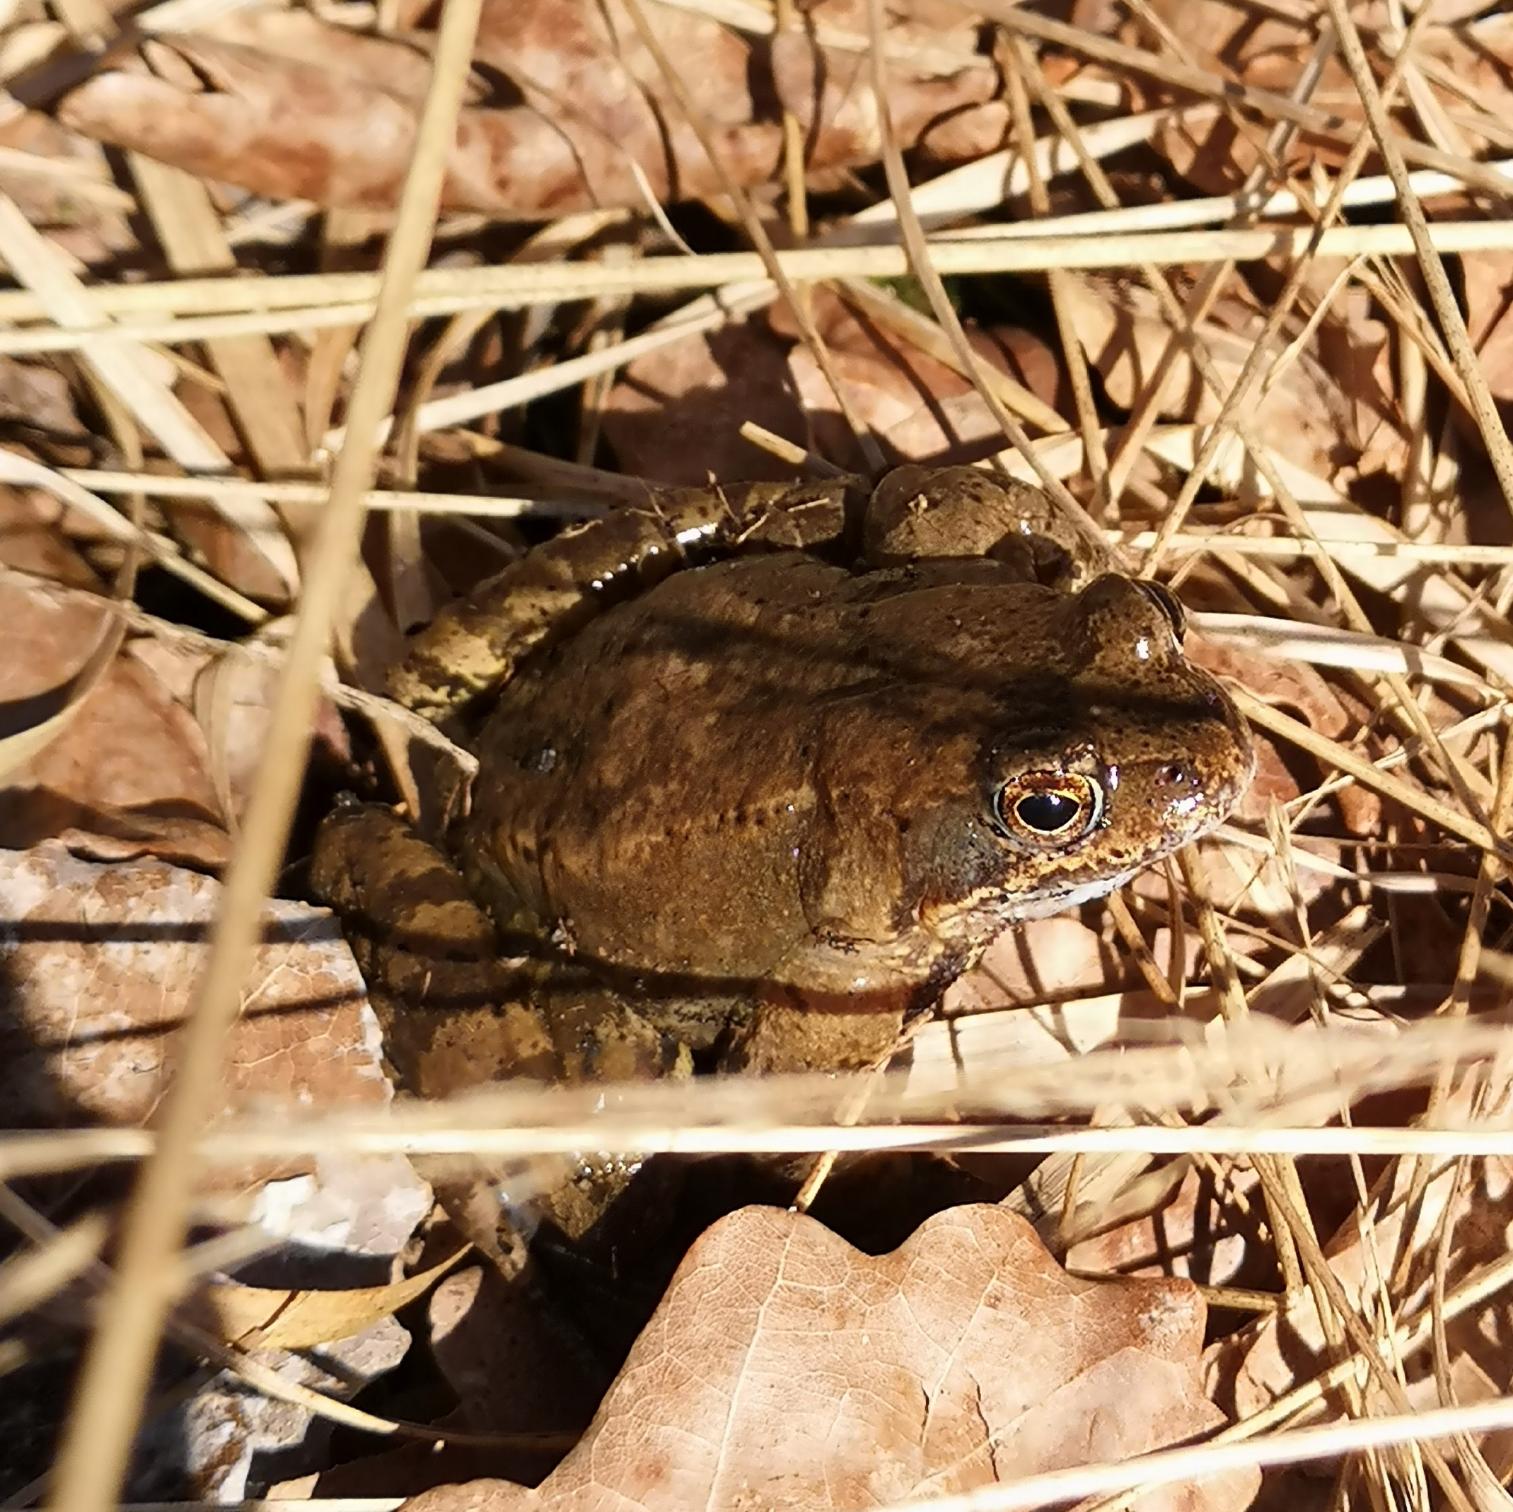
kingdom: Animalia
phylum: Chordata
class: Amphibia
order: Anura
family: Ranidae
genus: Rana
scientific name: Rana temporaria
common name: Butsnudet frø
